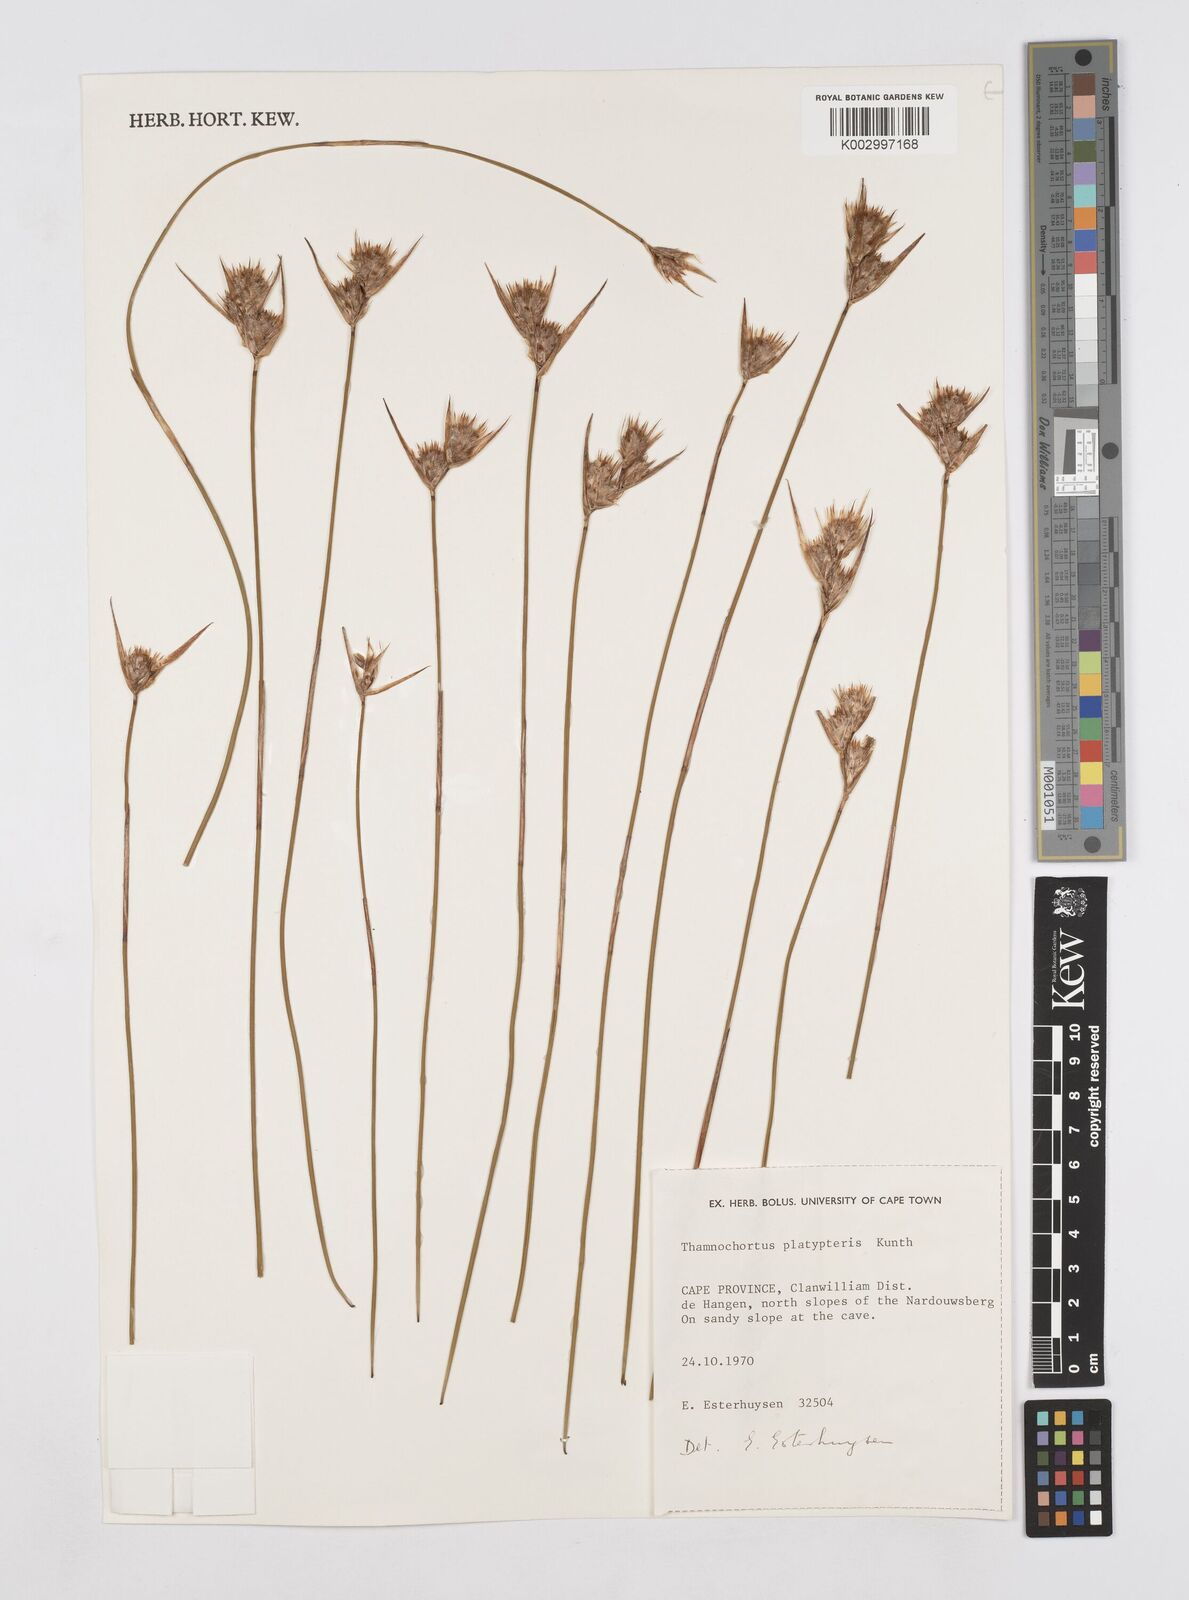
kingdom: Plantae
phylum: Tracheophyta
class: Liliopsida
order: Poales
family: Restionaceae
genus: Thamnochortus
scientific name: Thamnochortus platypteris
